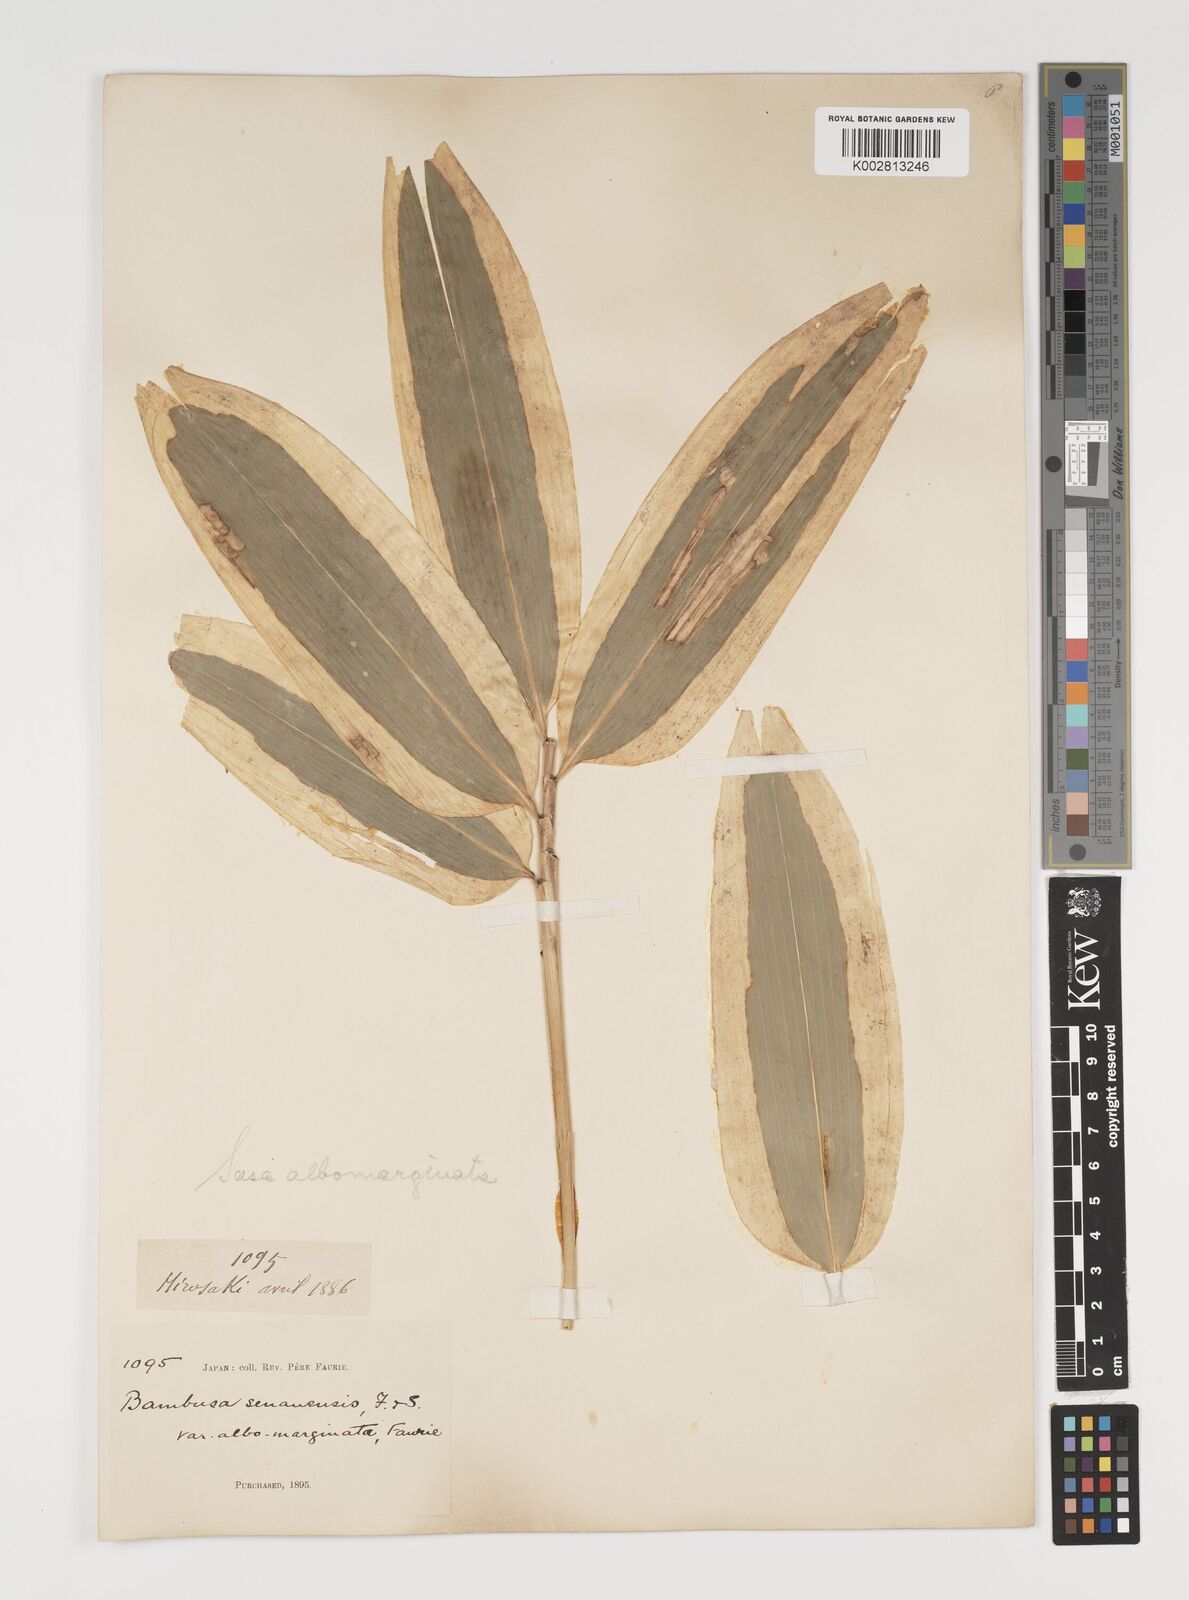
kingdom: Plantae
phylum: Tracheophyta
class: Liliopsida
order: Poales
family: Poaceae
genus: Sasa
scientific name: Sasa veitchii
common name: Veitch's bamboo
